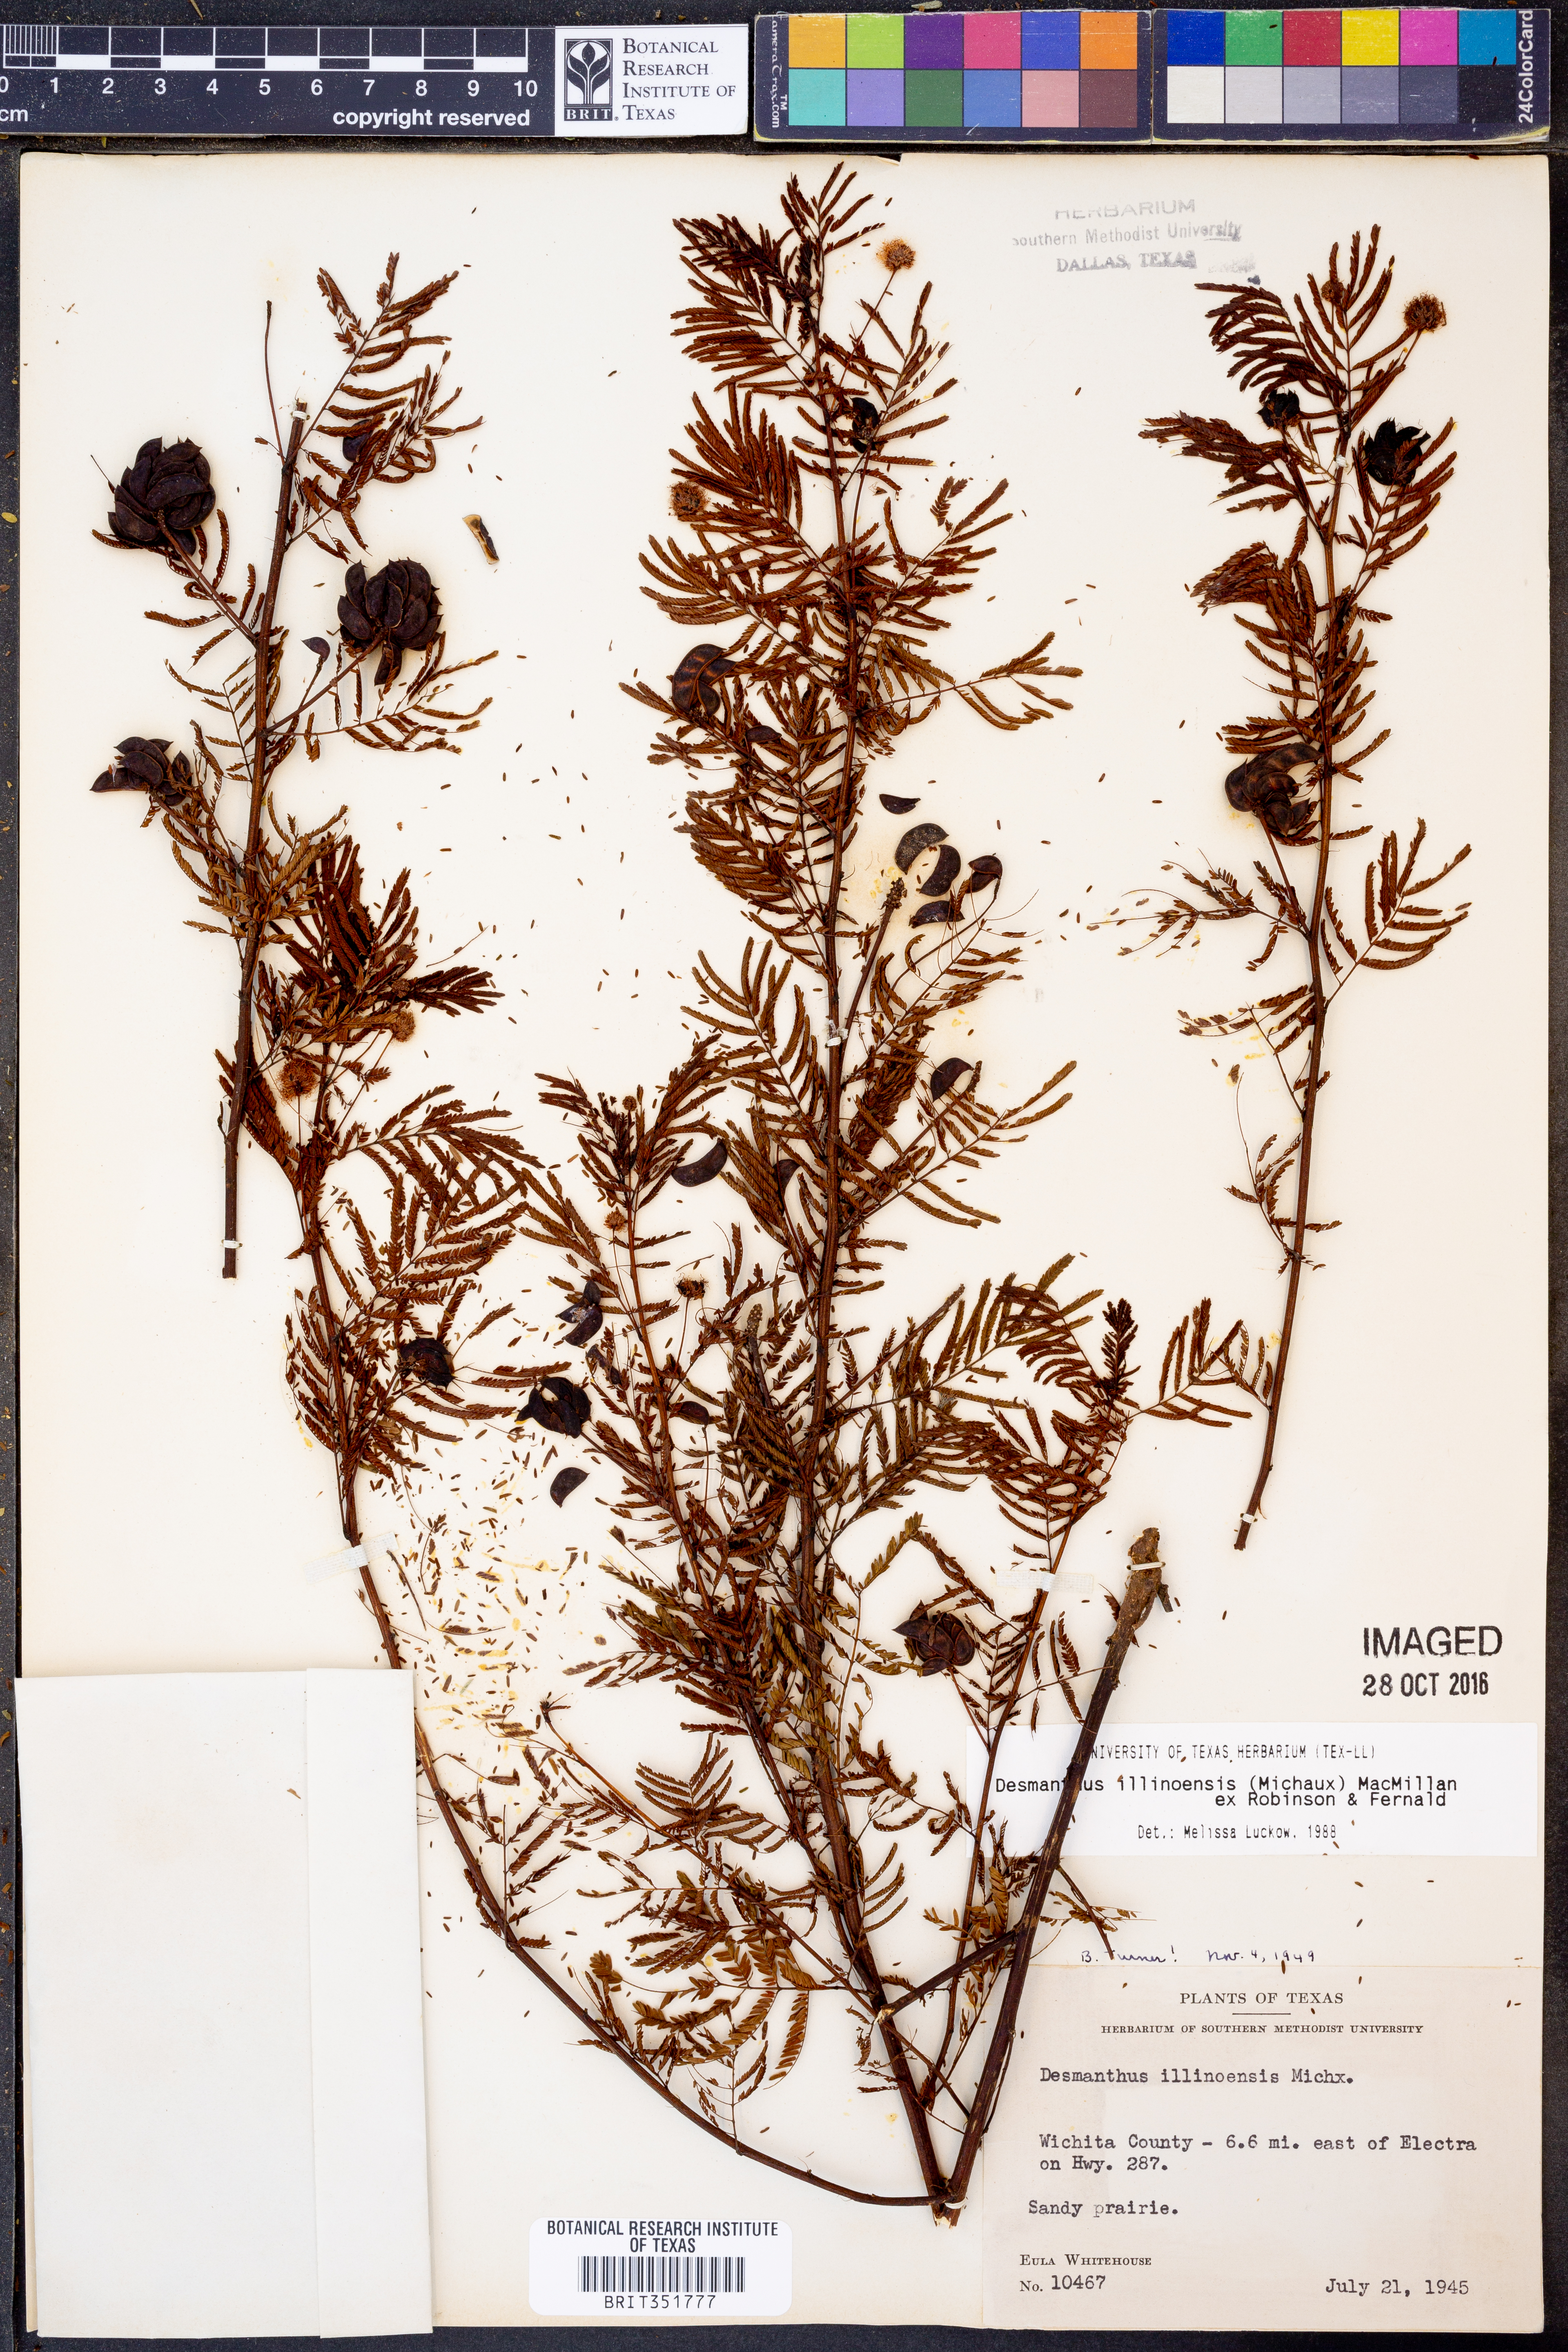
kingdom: Plantae
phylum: Tracheophyta
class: Magnoliopsida
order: Fabales
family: Fabaceae
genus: Desmanthus
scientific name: Desmanthus illinoensis
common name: Illinois bundle-flower
